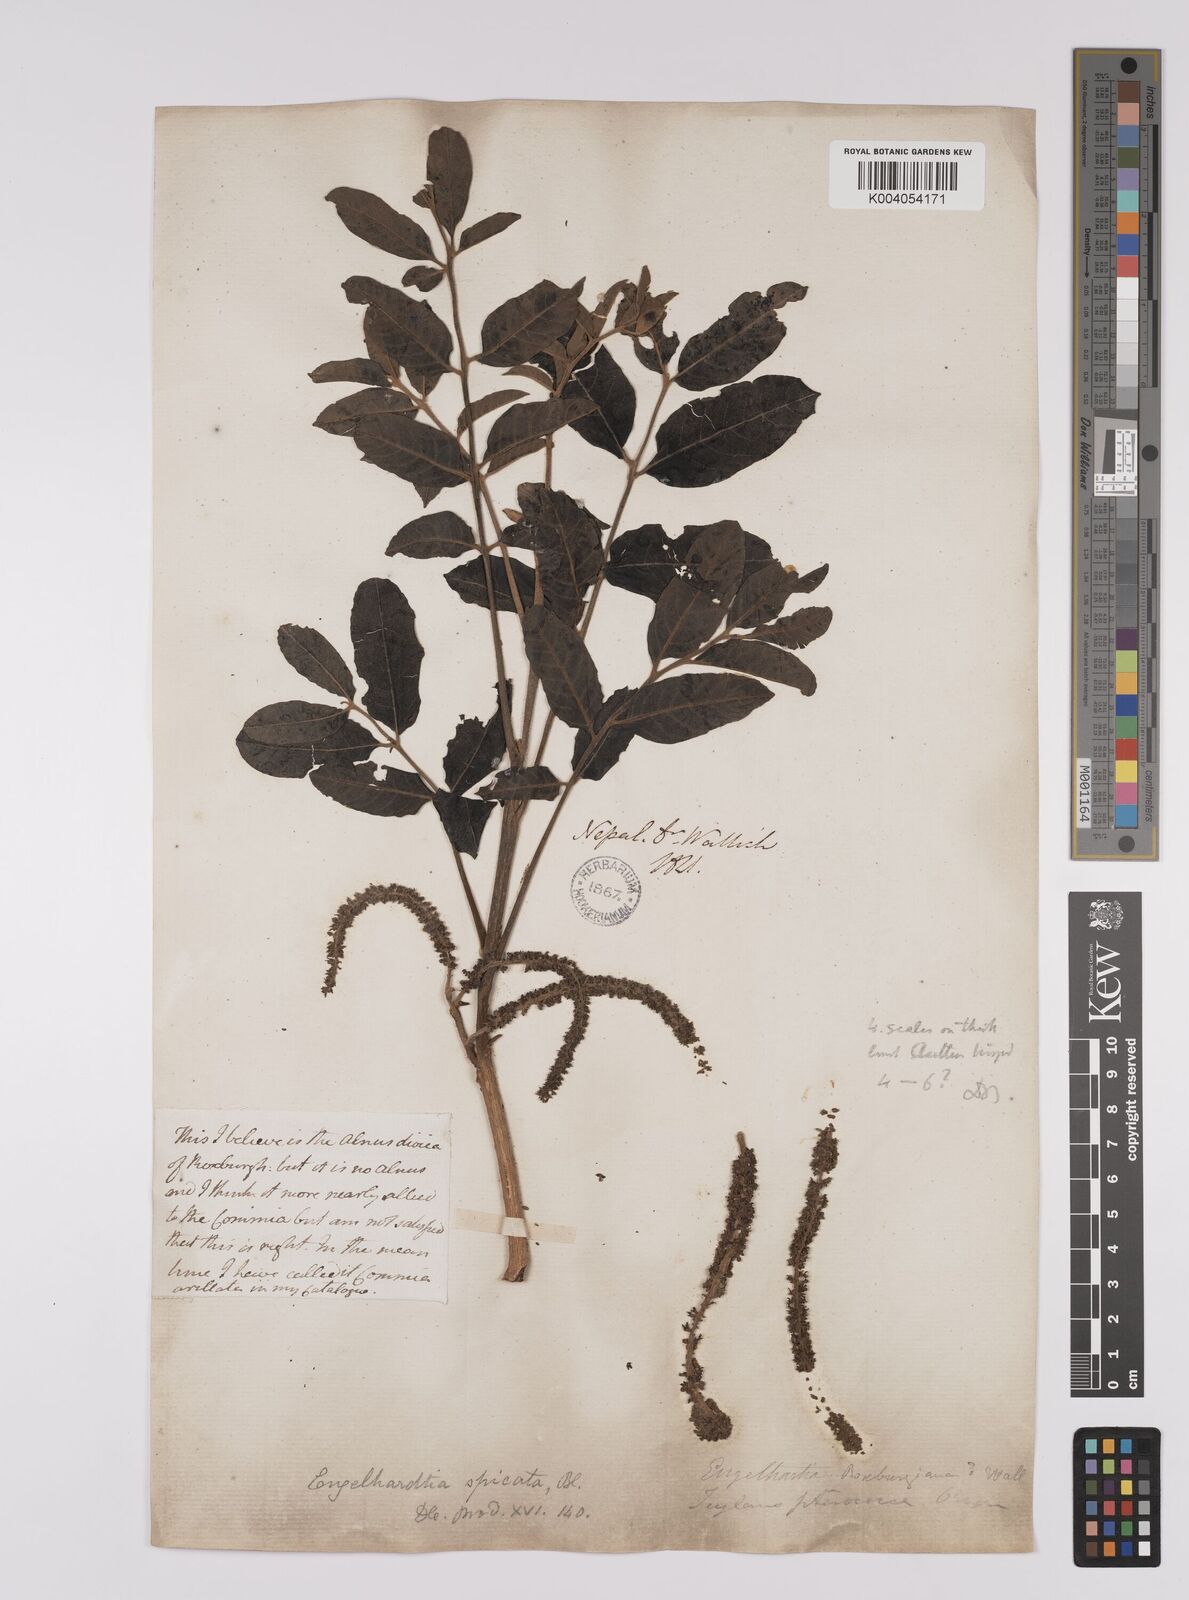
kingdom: Plantae
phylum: Tracheophyta
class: Magnoliopsida
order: Fagales
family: Juglandaceae
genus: Engelhardia
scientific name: Engelhardia spicata
